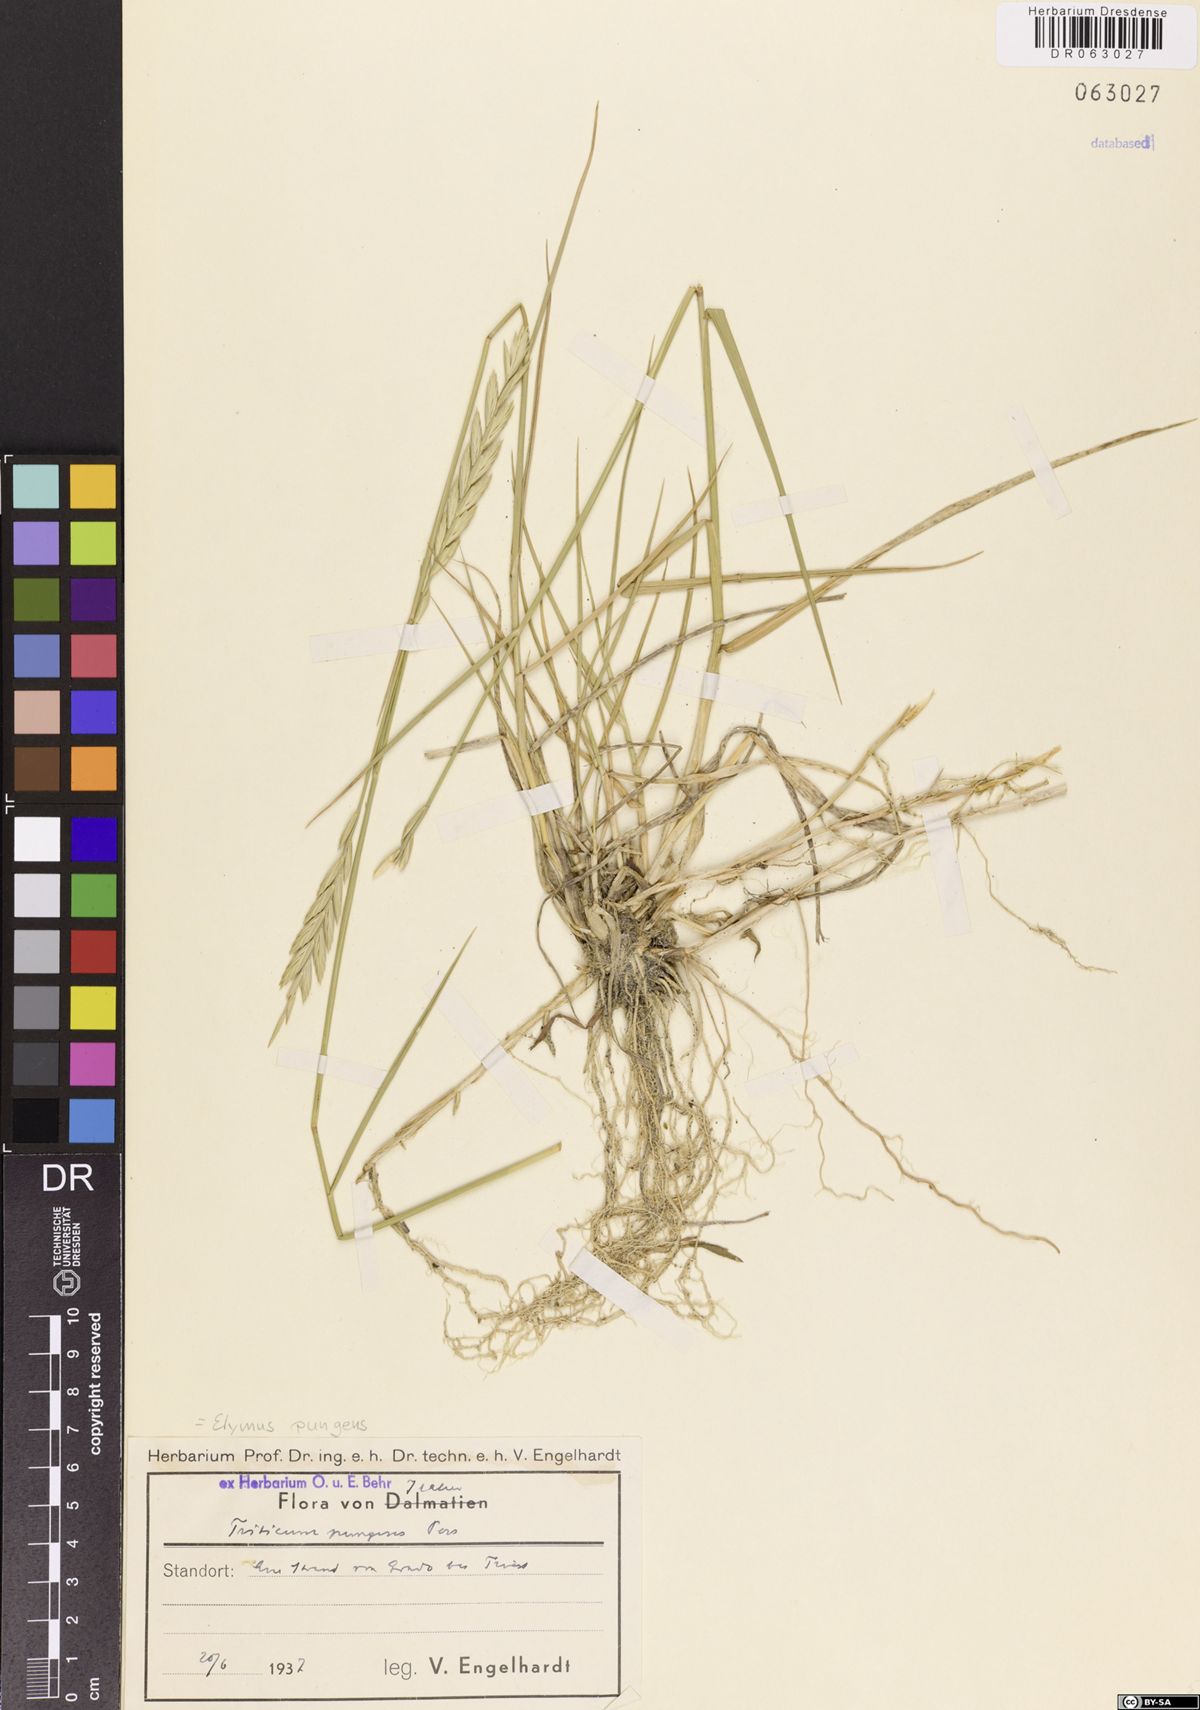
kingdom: Plantae
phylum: Tracheophyta
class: Liliopsida
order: Poales
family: Poaceae
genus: Elymus
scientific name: Elymus pungens
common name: Sea couch
